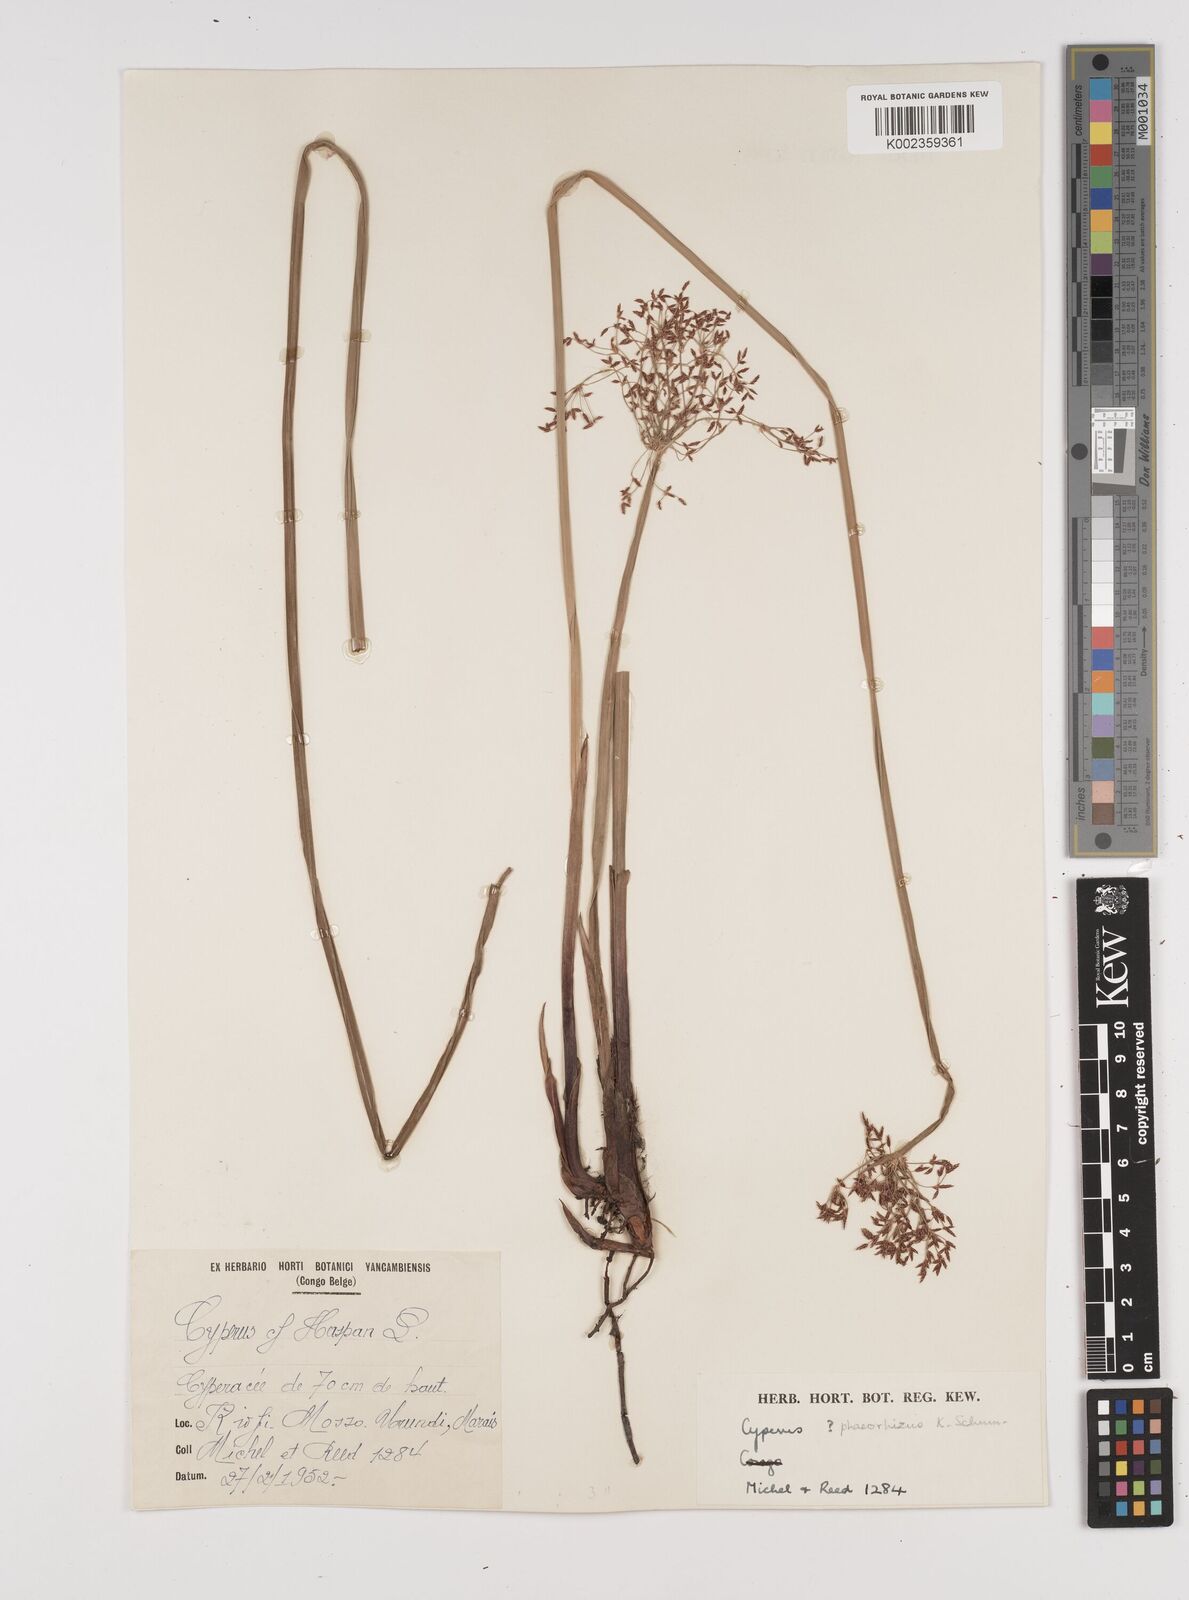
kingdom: Plantae
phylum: Tracheophyta
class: Liliopsida
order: Poales
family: Cyperaceae
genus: Cyperus
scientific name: Cyperus platycaulis
